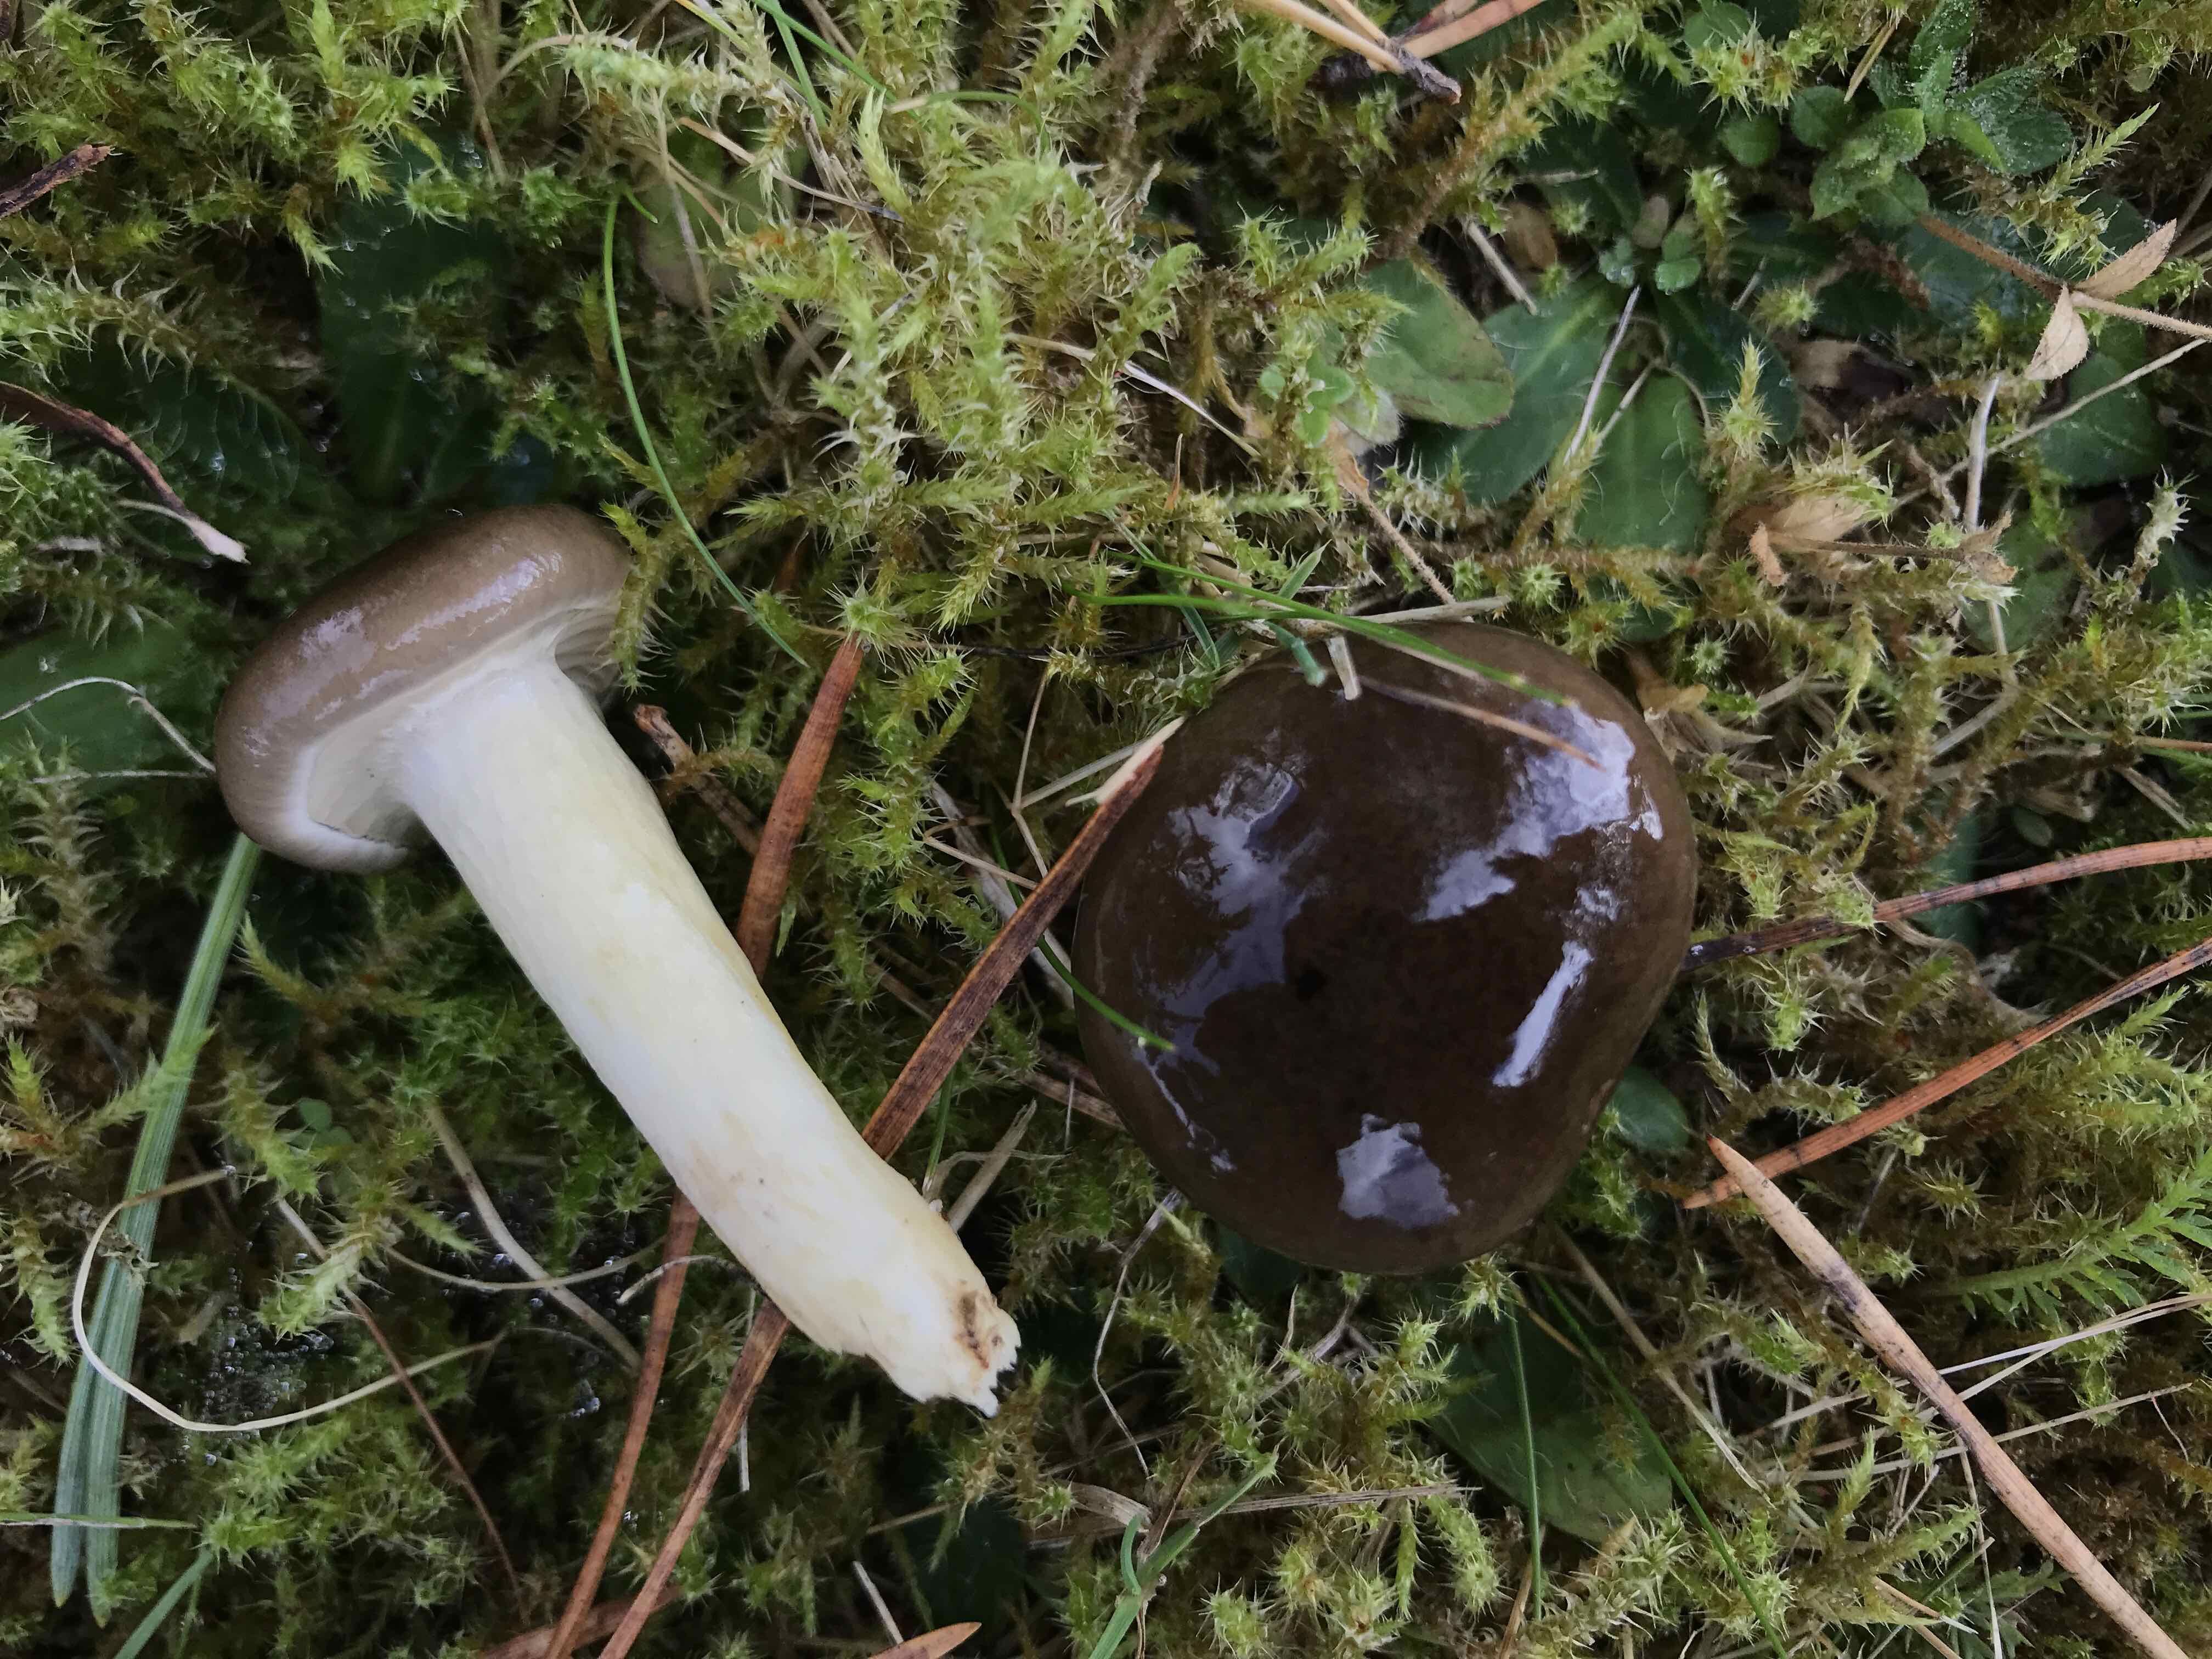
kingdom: Fungi
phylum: Basidiomycota
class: Agaricomycetes
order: Agaricales
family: Hygrophoraceae
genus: Hygrophorus
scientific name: Hygrophorus hypothejus
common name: frost-sneglehat
